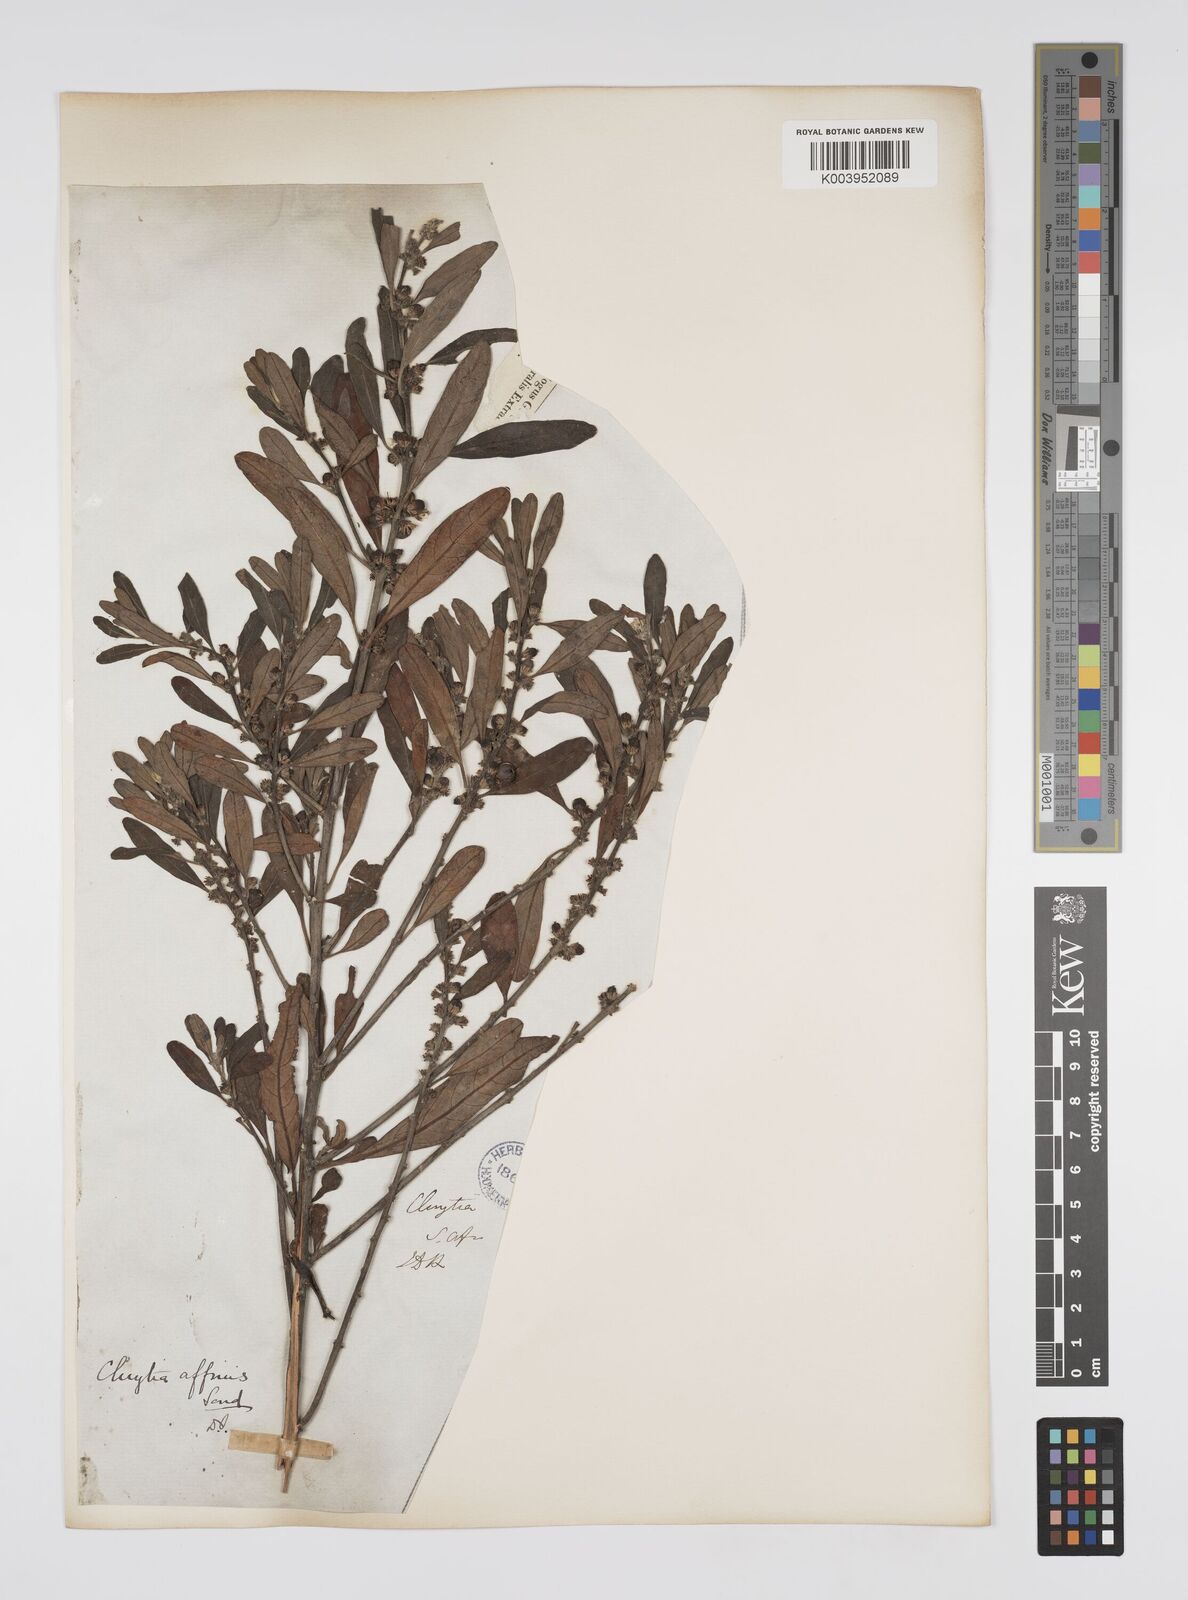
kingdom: Plantae
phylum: Tracheophyta
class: Magnoliopsida
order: Malpighiales
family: Peraceae
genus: Clutia
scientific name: Clutia affinis
